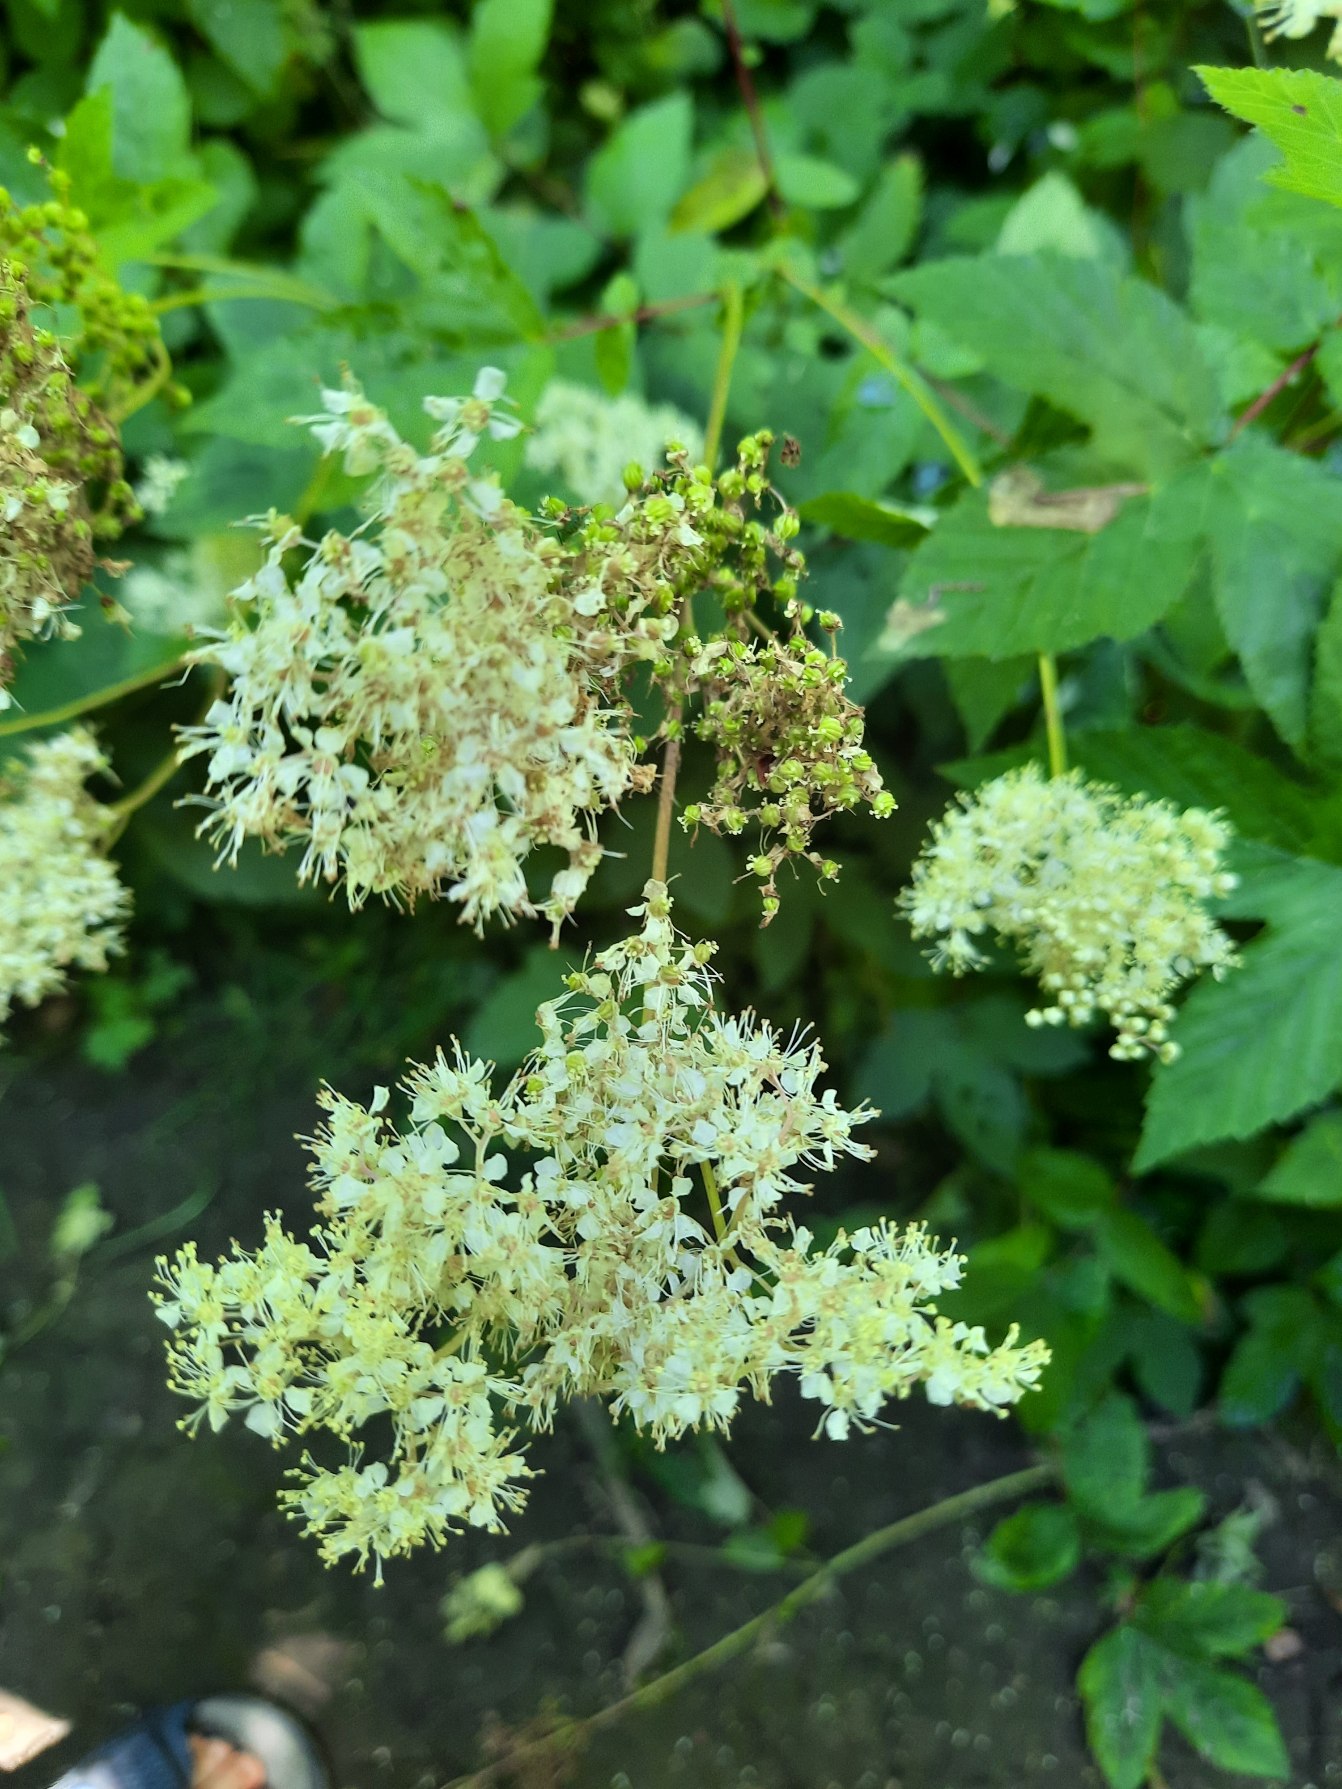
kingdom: Plantae
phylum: Tracheophyta
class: Magnoliopsida
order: Rosales
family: Rosaceae
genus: Filipendula
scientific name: Filipendula ulmaria
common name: Almindelig mjødurt
